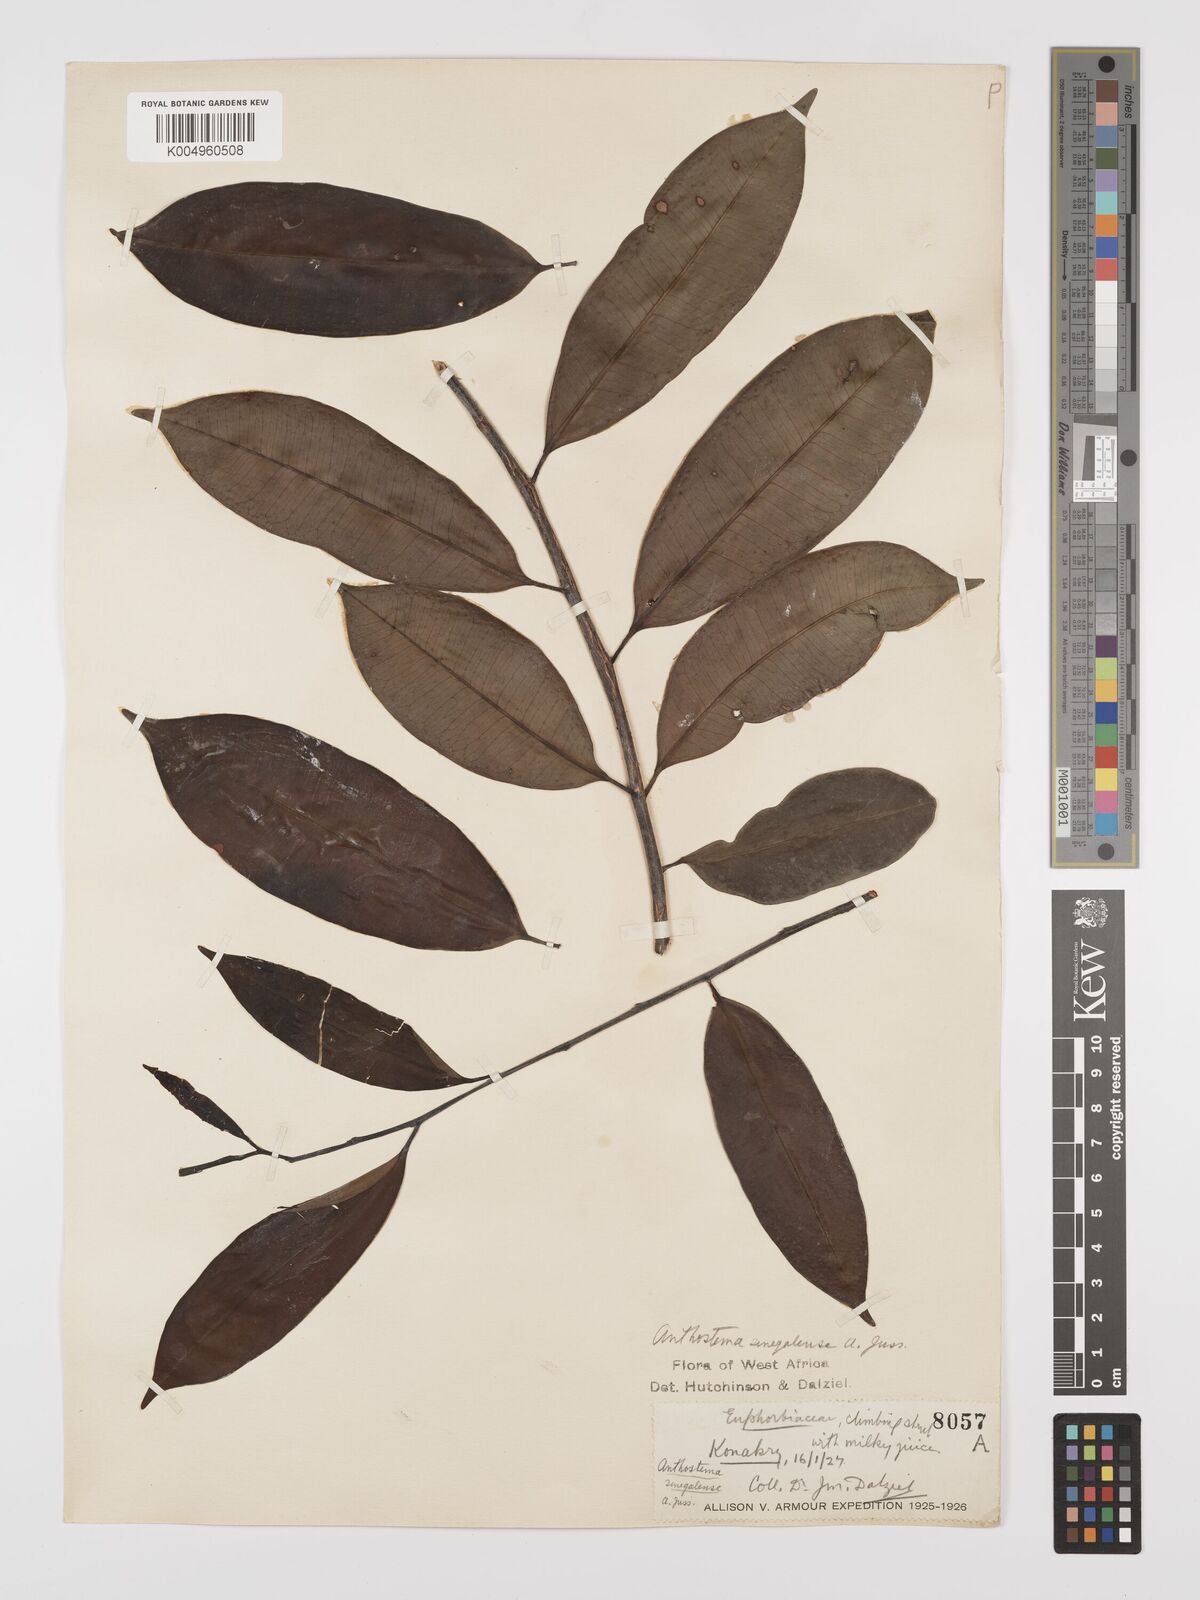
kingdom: Plantae
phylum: Tracheophyta
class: Magnoliopsida
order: Malpighiales
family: Euphorbiaceae
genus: Anthostema
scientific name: Anthostema senegalense
